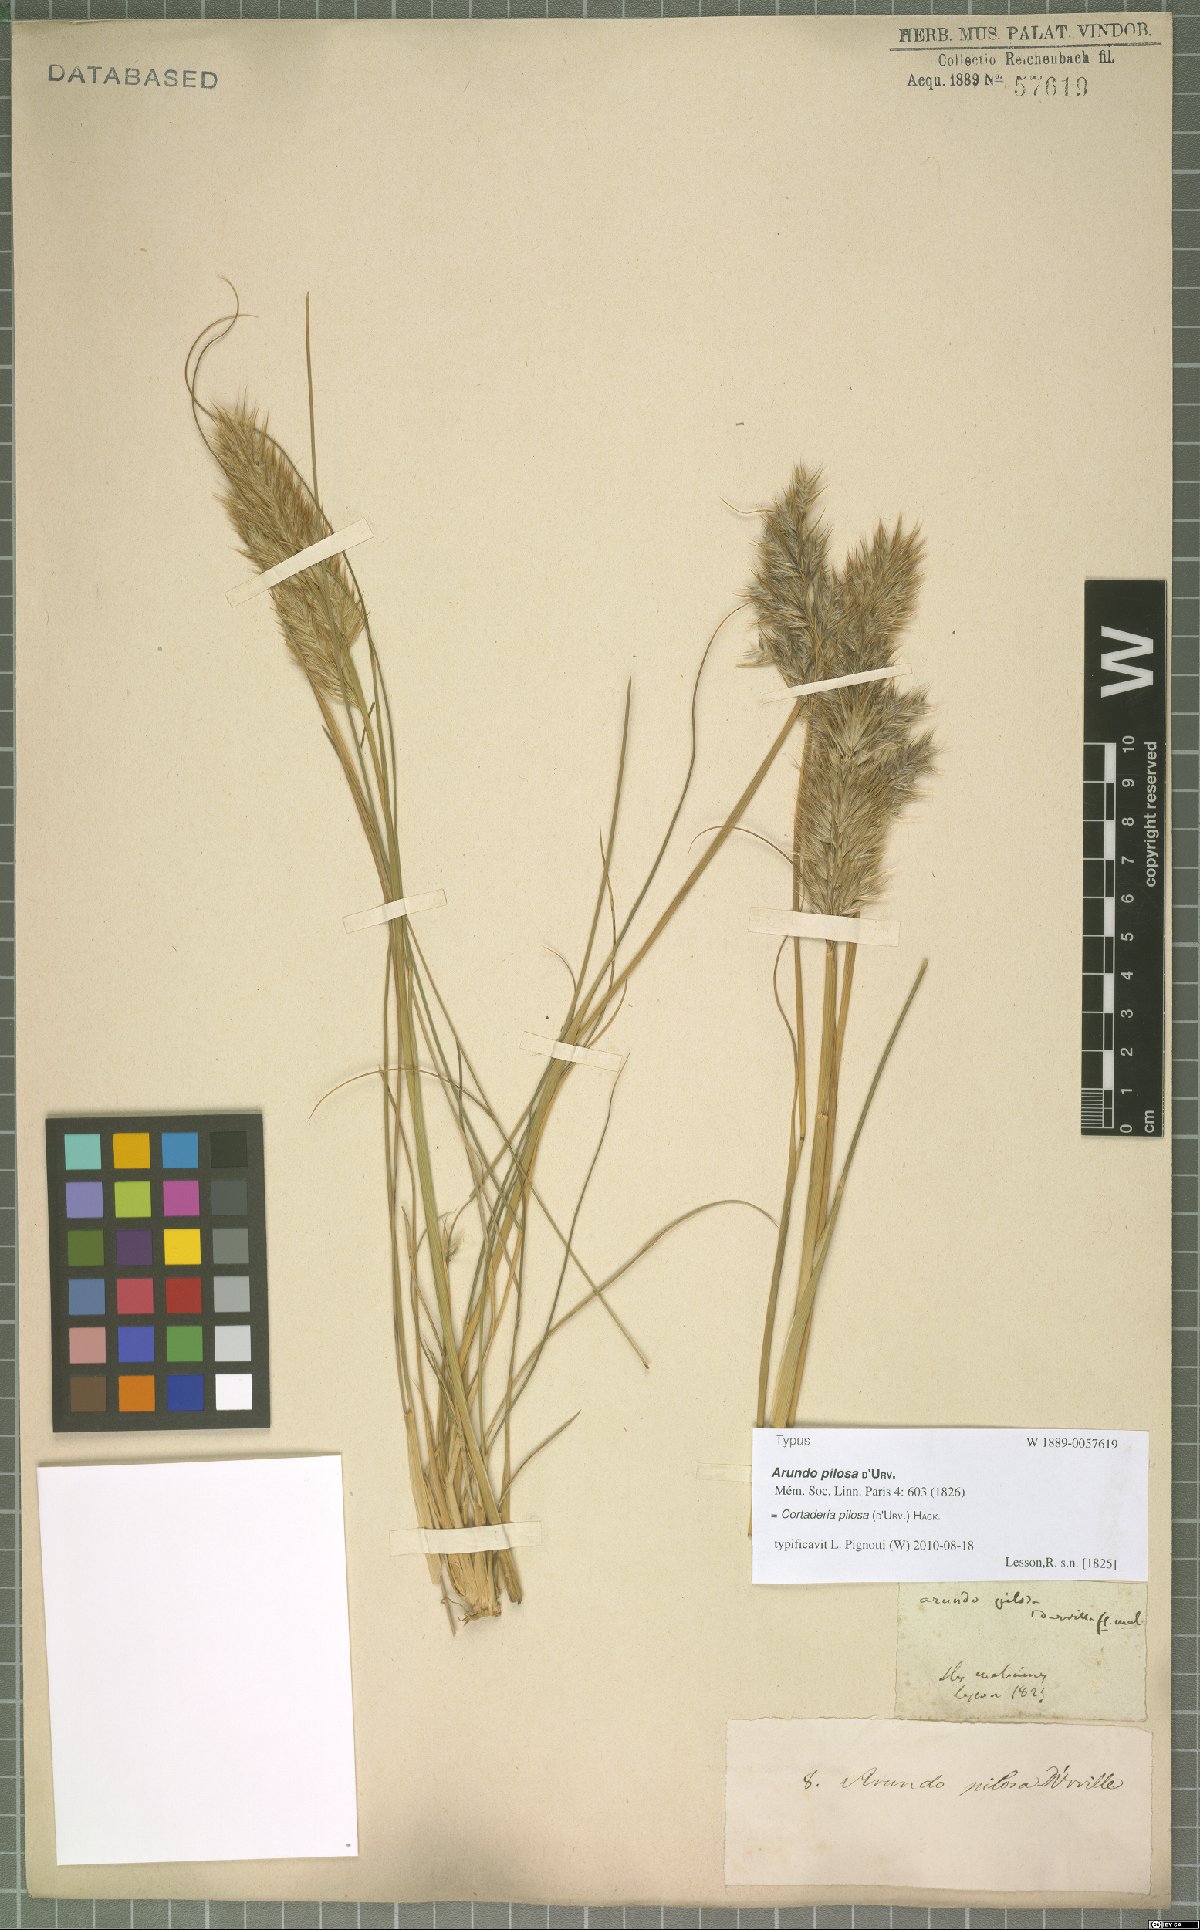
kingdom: Plantae
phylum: Tracheophyta
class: Liliopsida
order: Poales
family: Poaceae
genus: Cortaderia
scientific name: Cortaderia egmontiana
